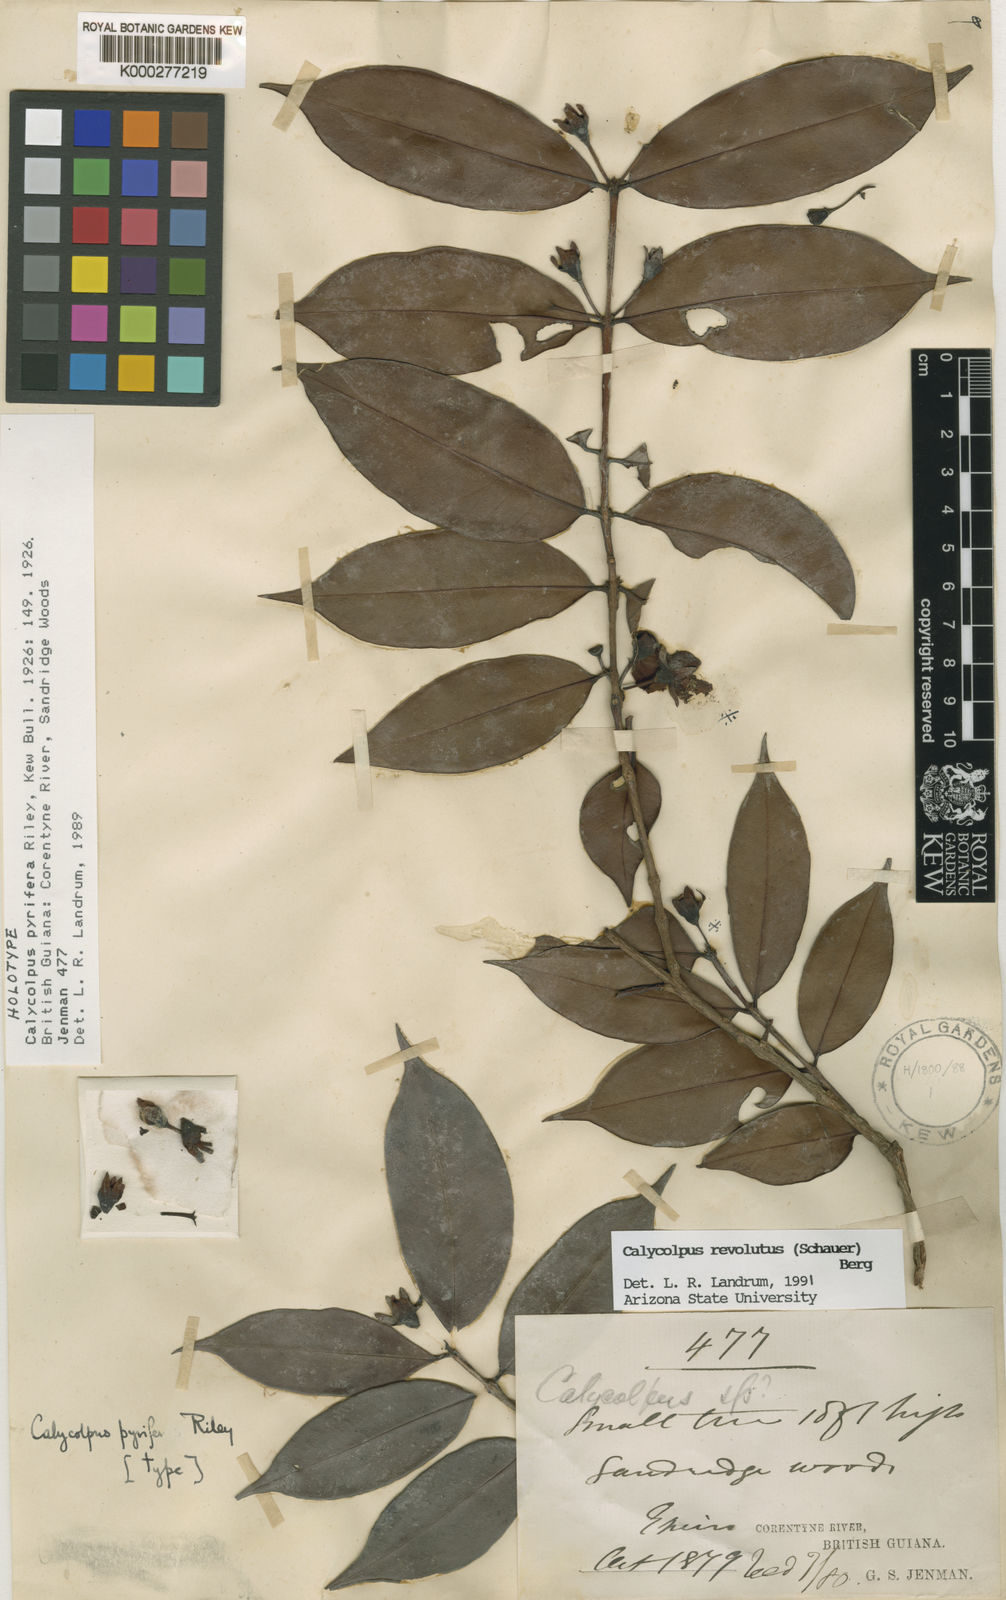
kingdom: Plantae
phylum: Tracheophyta
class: Magnoliopsida
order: Myrtales
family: Myrtaceae
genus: Calycolpus
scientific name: Calycolpus revolutus
